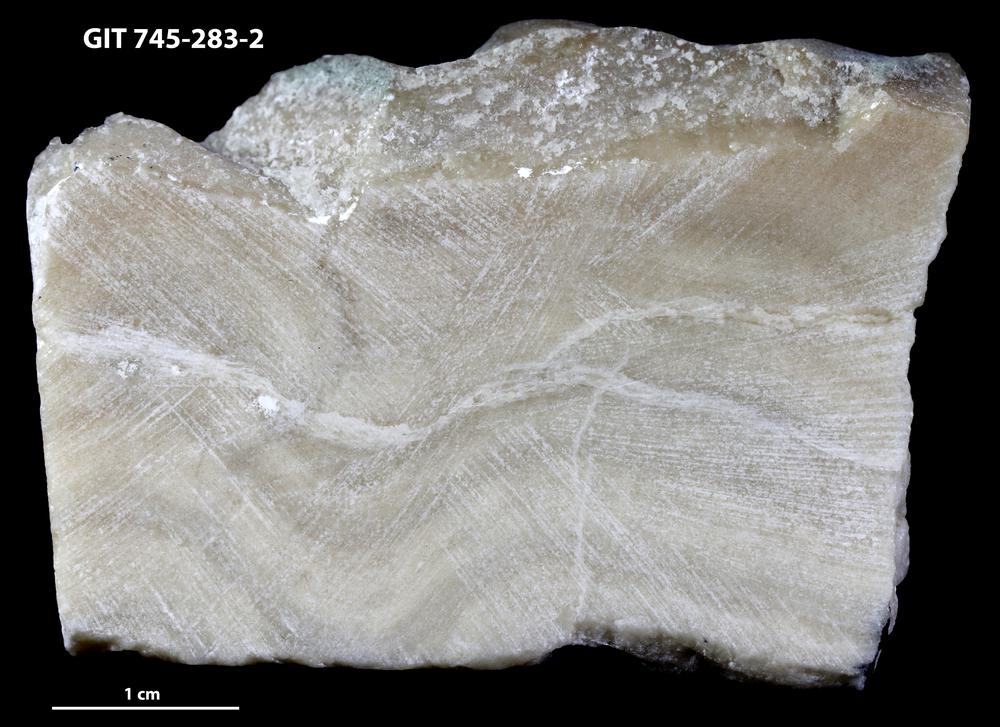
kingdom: Animalia
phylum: Porifera
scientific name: Porifera
